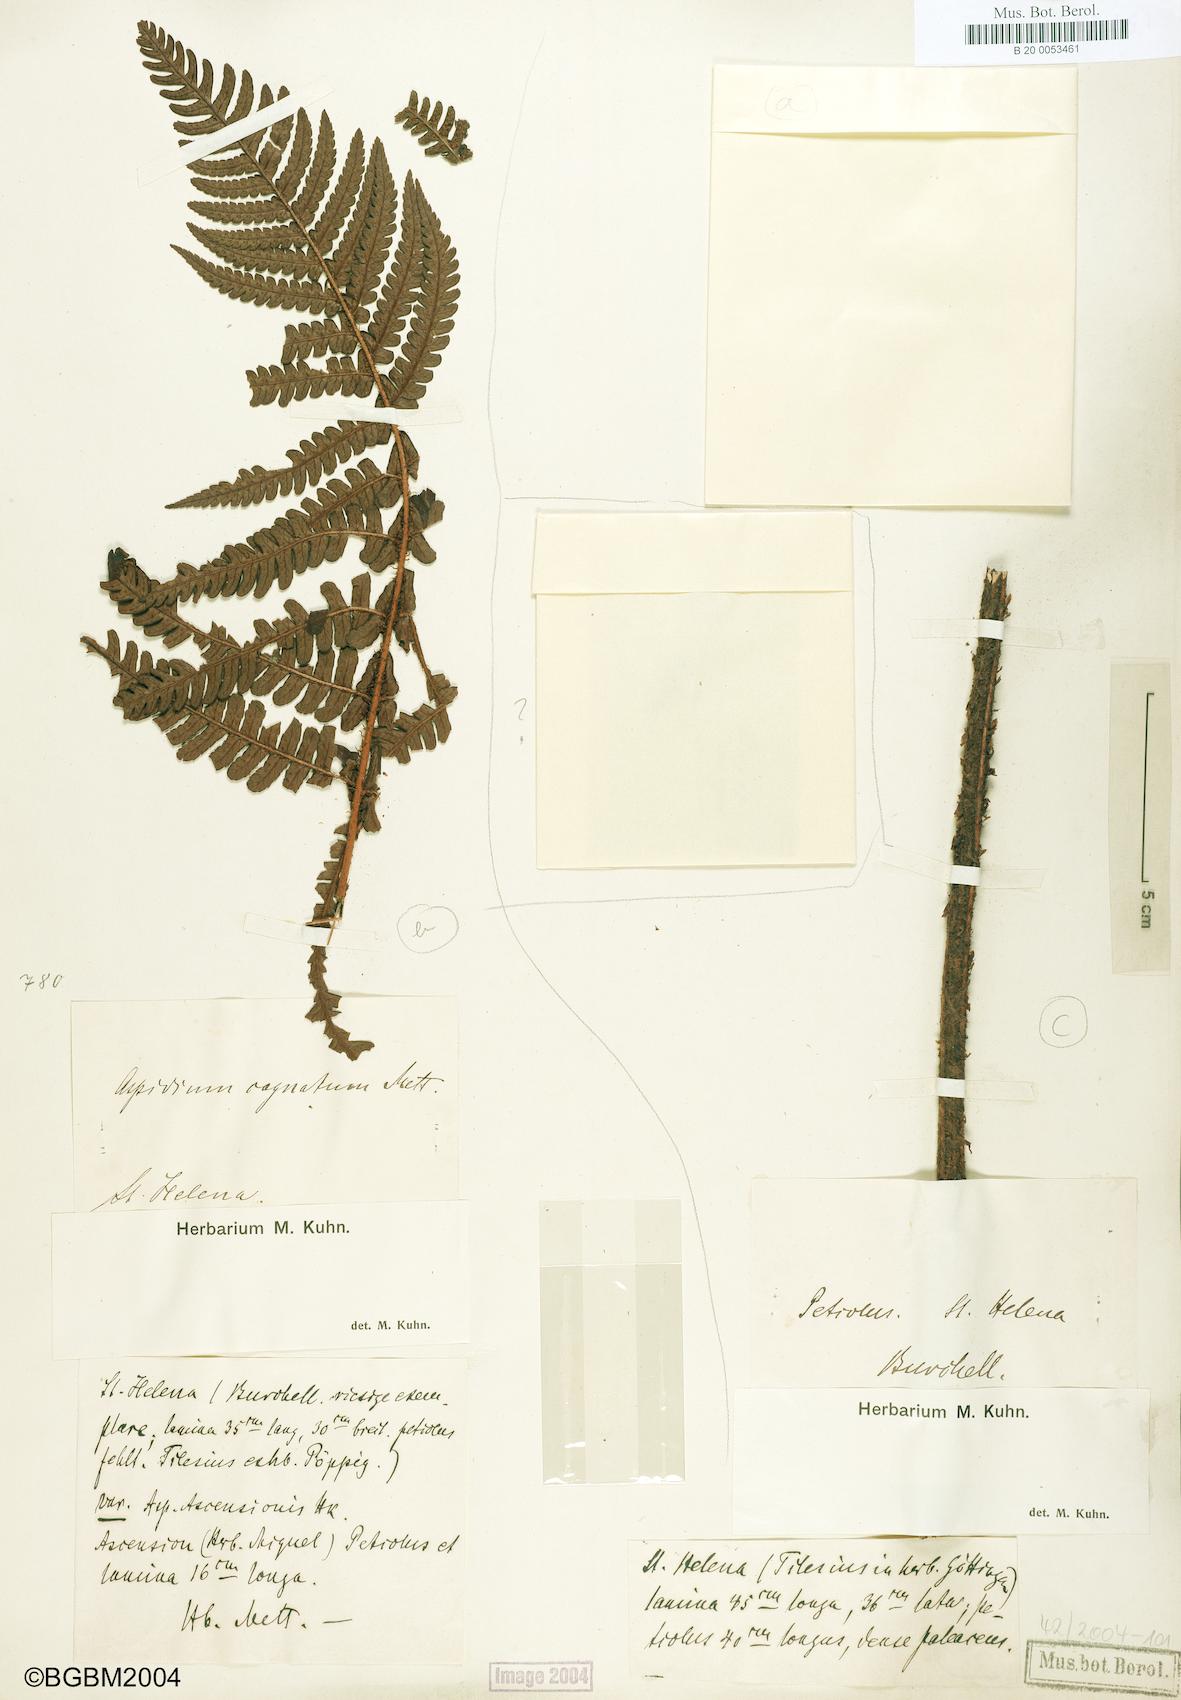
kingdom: Plantae
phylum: Tracheophyta
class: Polypodiopsida
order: Polypodiales
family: Dryopteridaceae
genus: Dryopteris
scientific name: Dryopteris cognata
